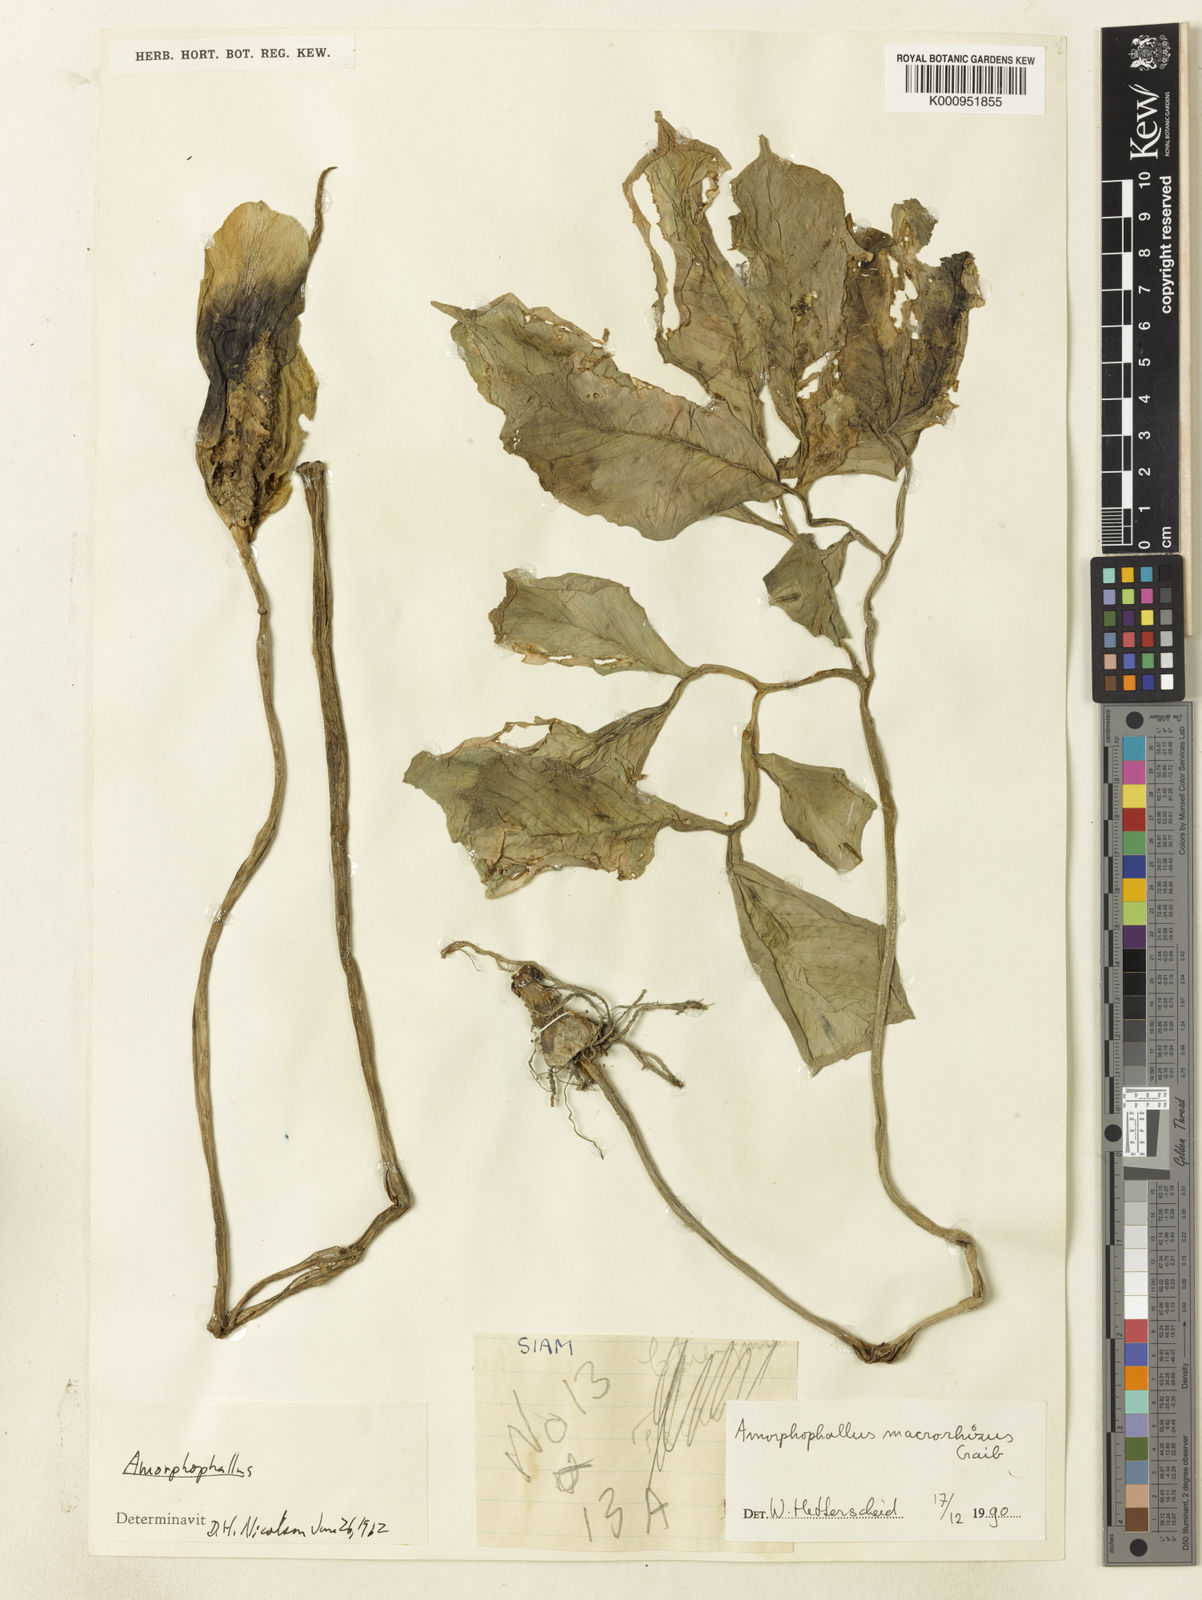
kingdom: Plantae
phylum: Tracheophyta
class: Liliopsida
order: Alismatales
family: Araceae
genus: Amorphophallus
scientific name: Amorphophallus macrorhizus
